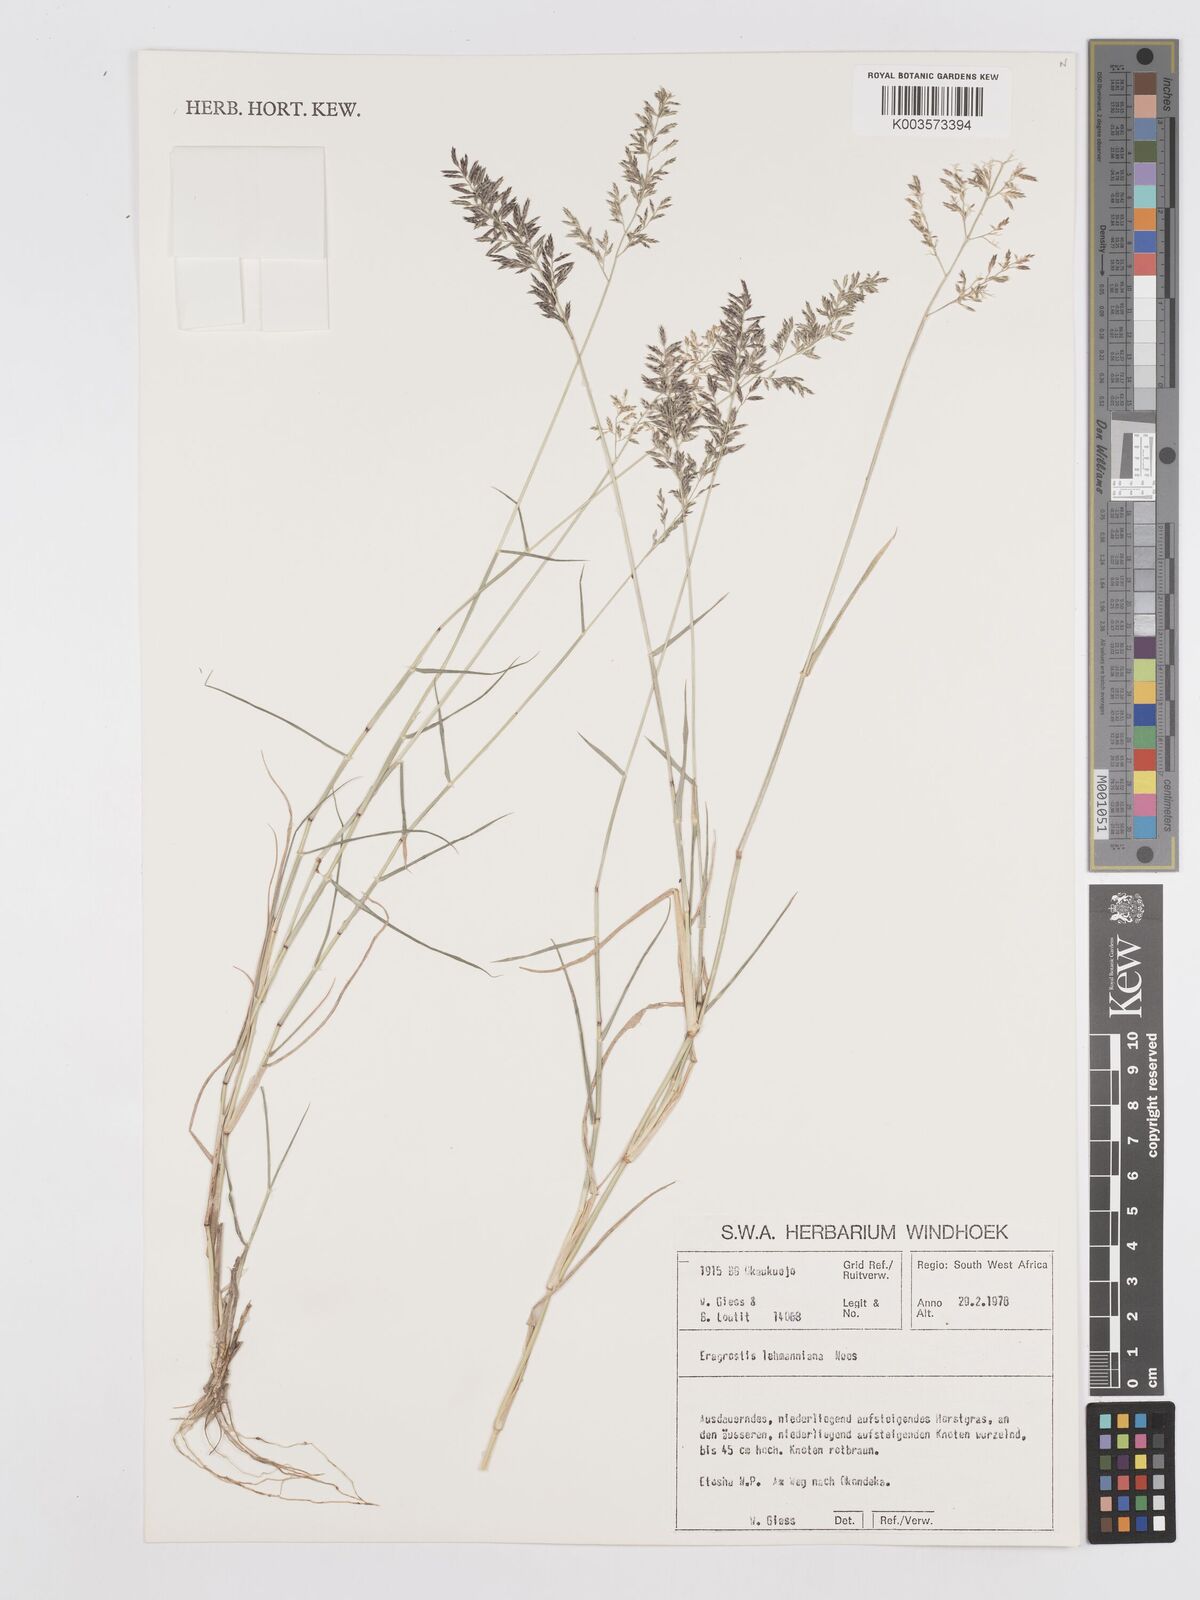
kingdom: Plantae
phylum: Tracheophyta
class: Liliopsida
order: Poales
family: Poaceae
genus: Eragrostis
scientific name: Eragrostis lehmanniana
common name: Lehmann lovegrass
